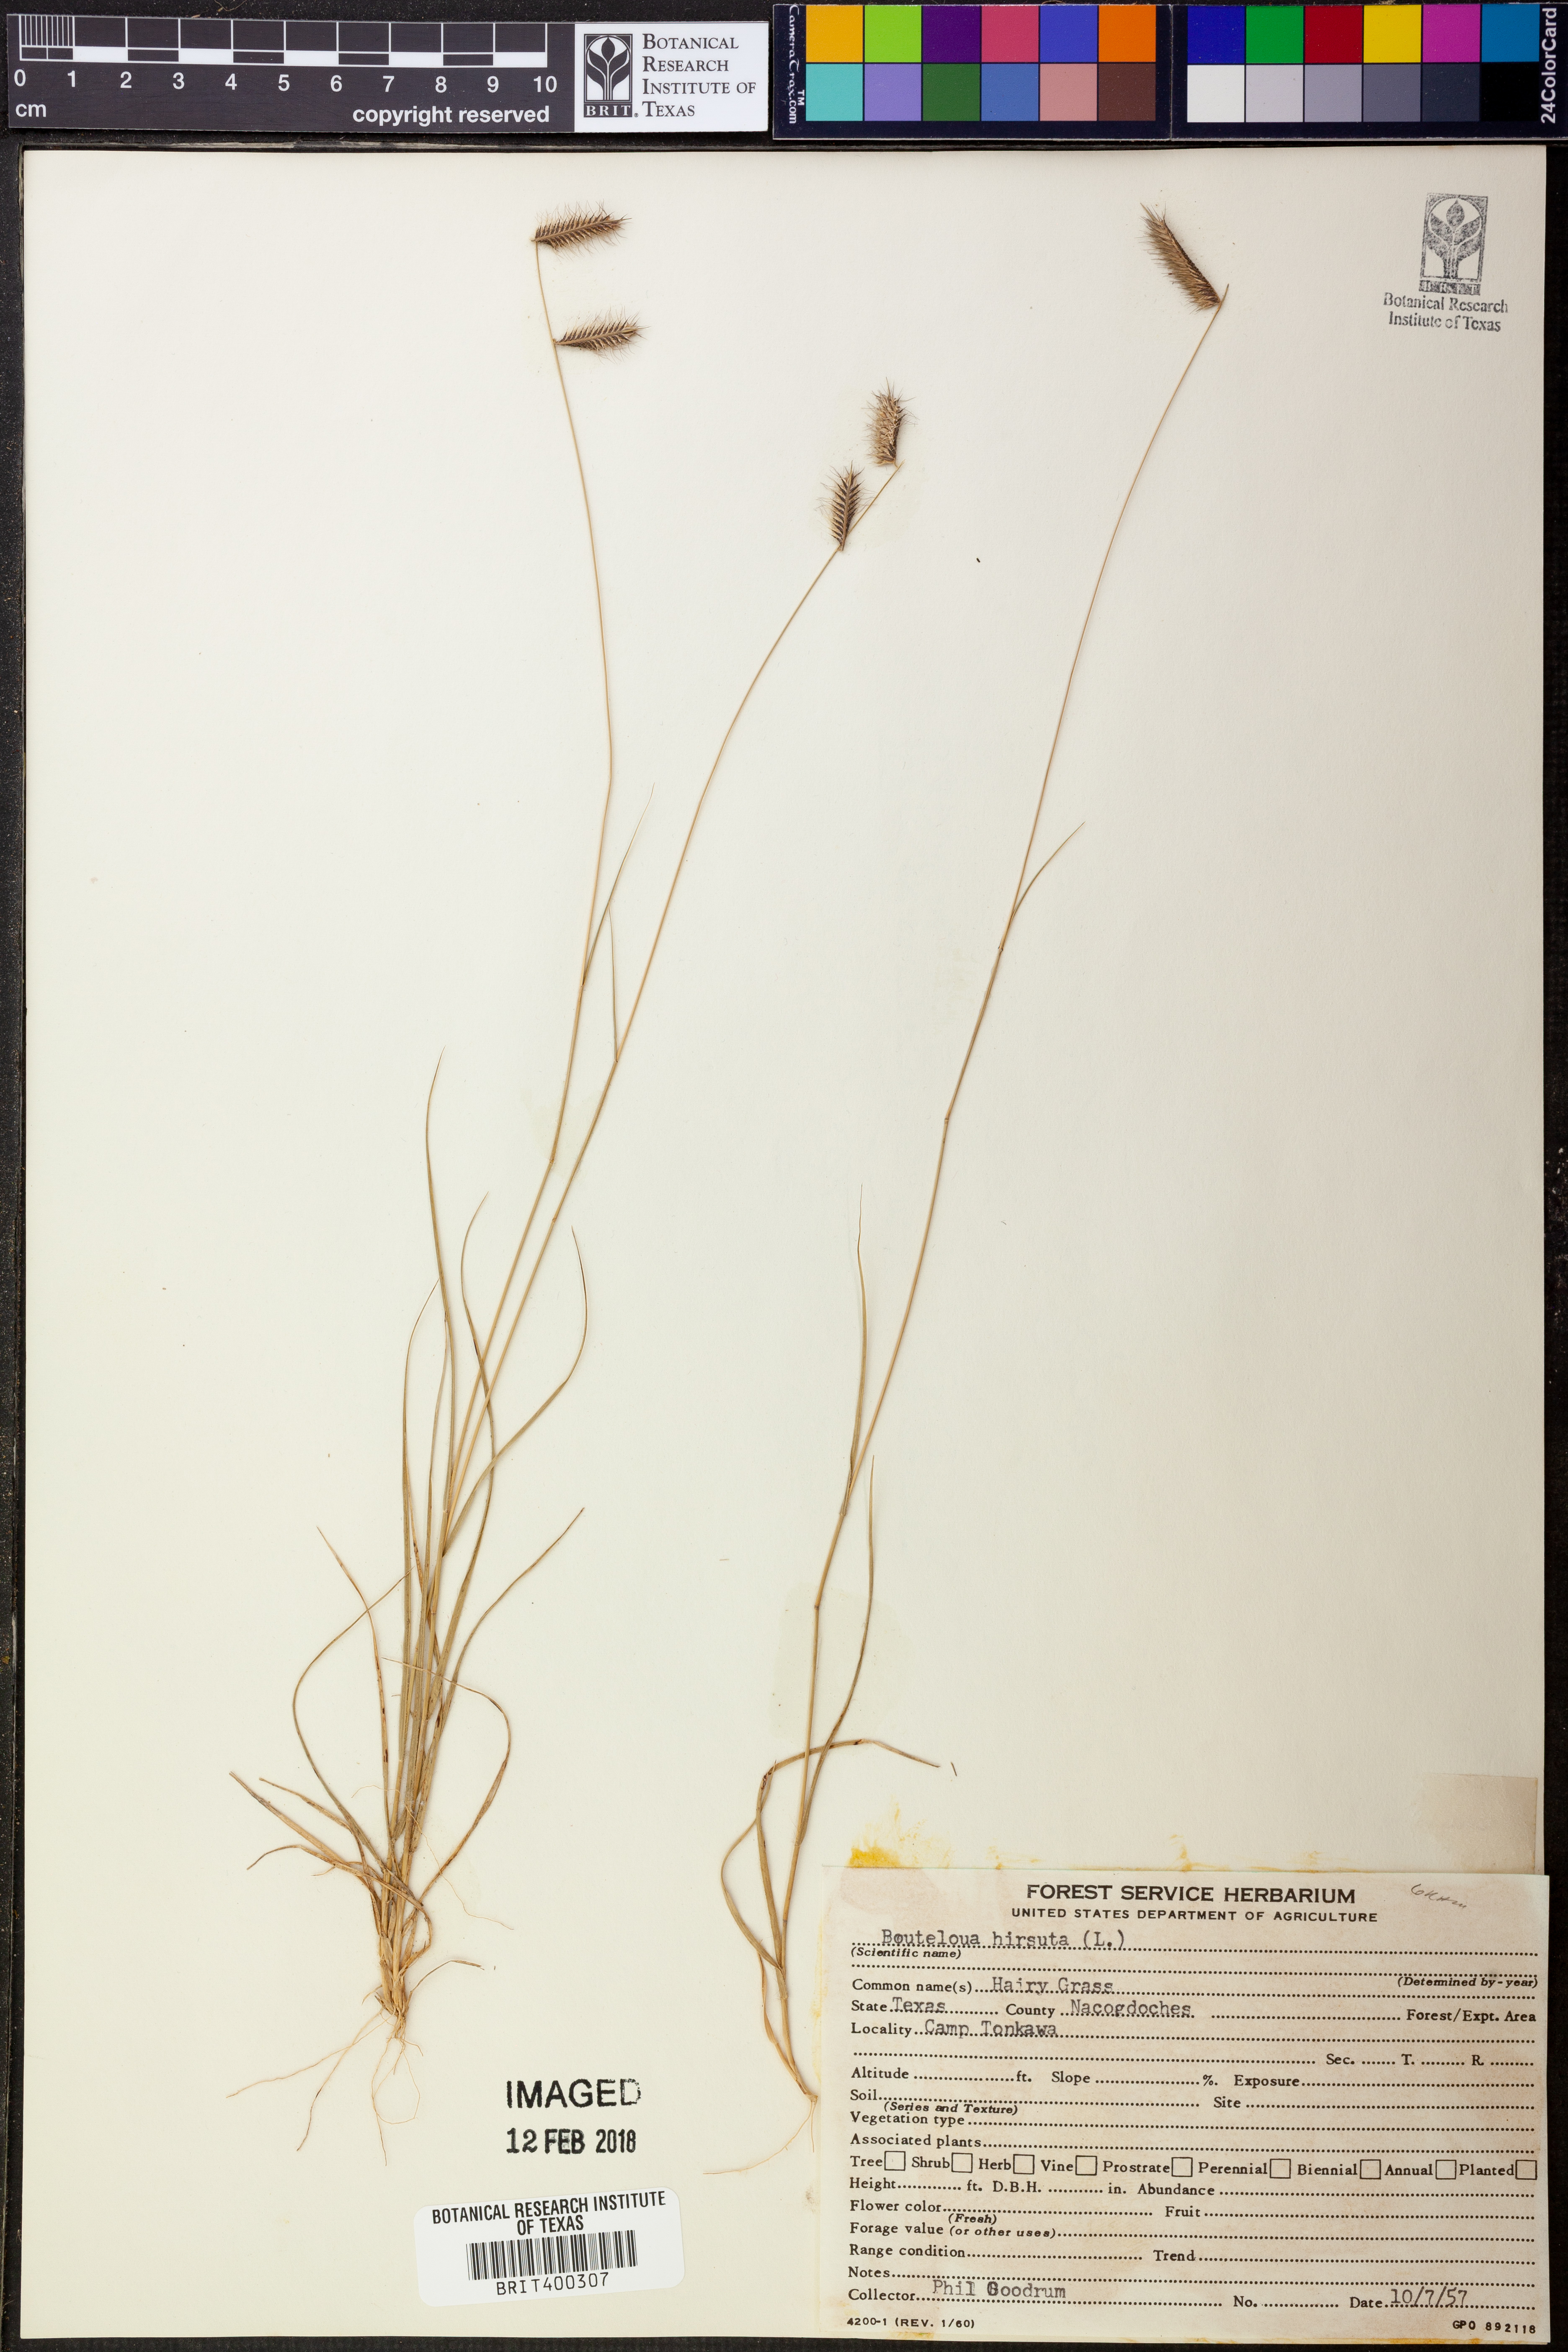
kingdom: Plantae
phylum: Tracheophyta
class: Liliopsida
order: Poales
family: Poaceae
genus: Bouteloua
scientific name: Bouteloua hirsuta
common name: Hairy grama
